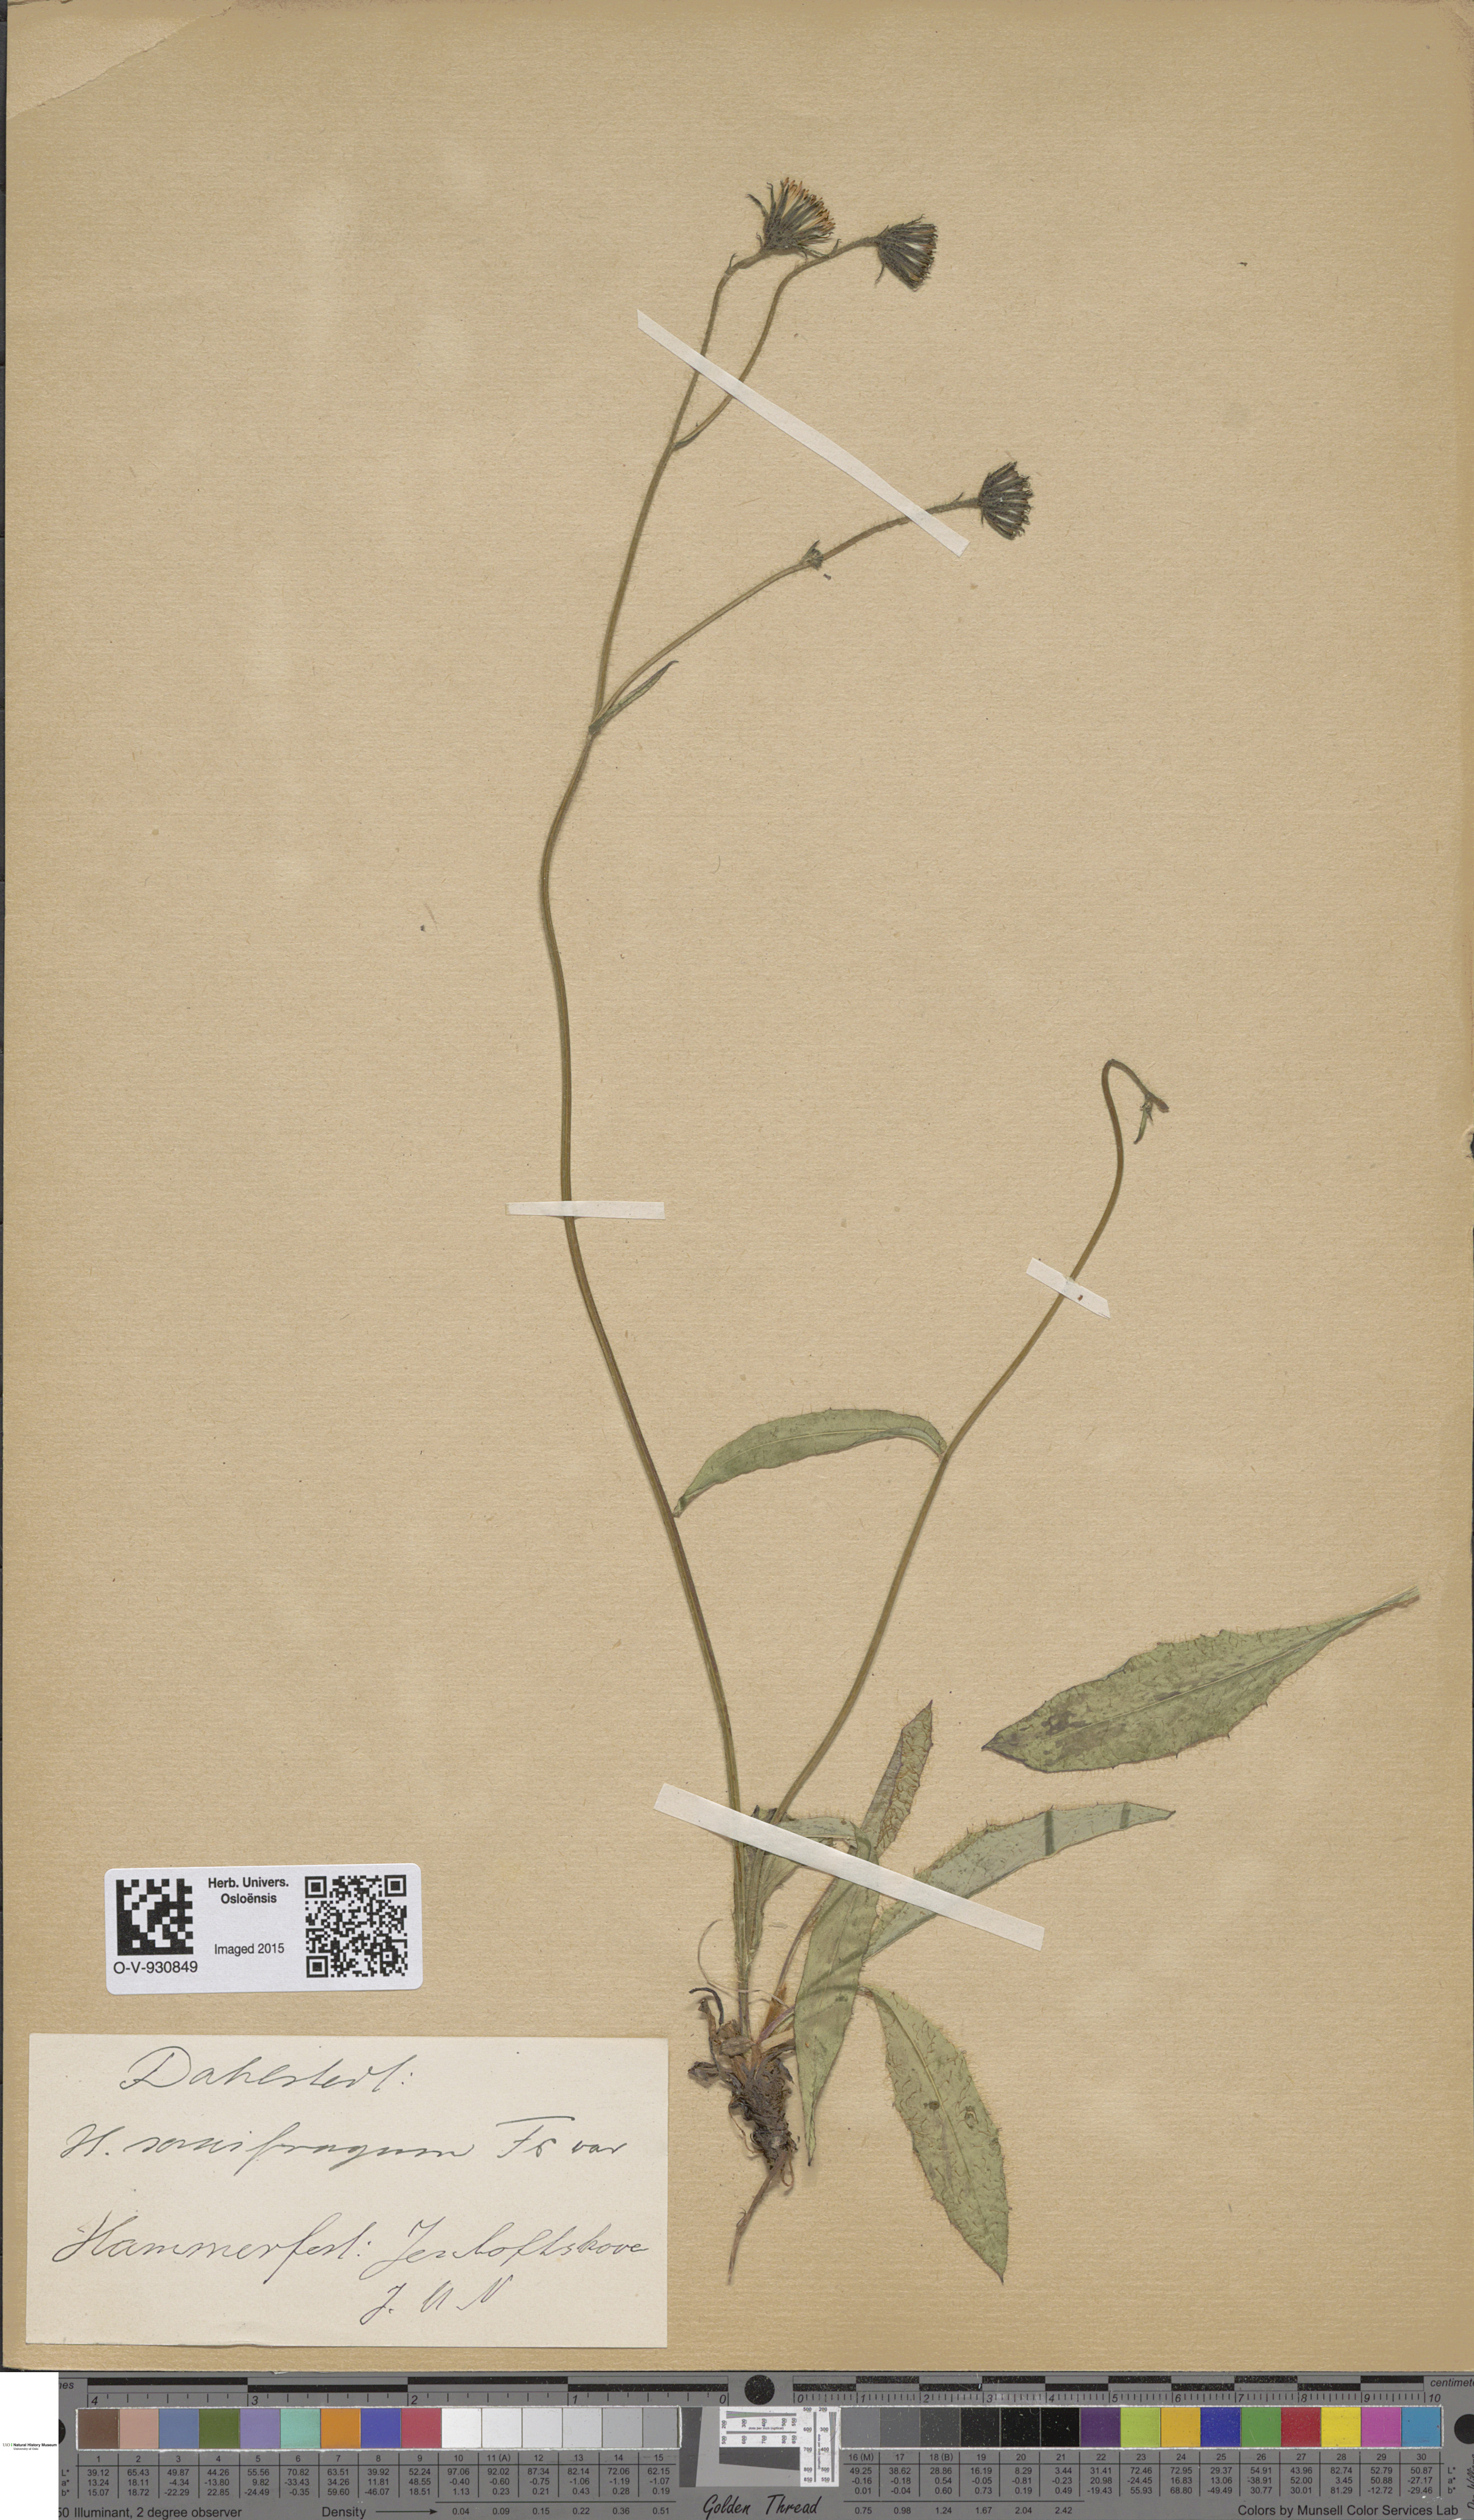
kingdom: Plantae
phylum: Tracheophyta
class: Magnoliopsida
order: Asterales
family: Asteraceae
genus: Hieracium
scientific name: Hieracium saxifragum
